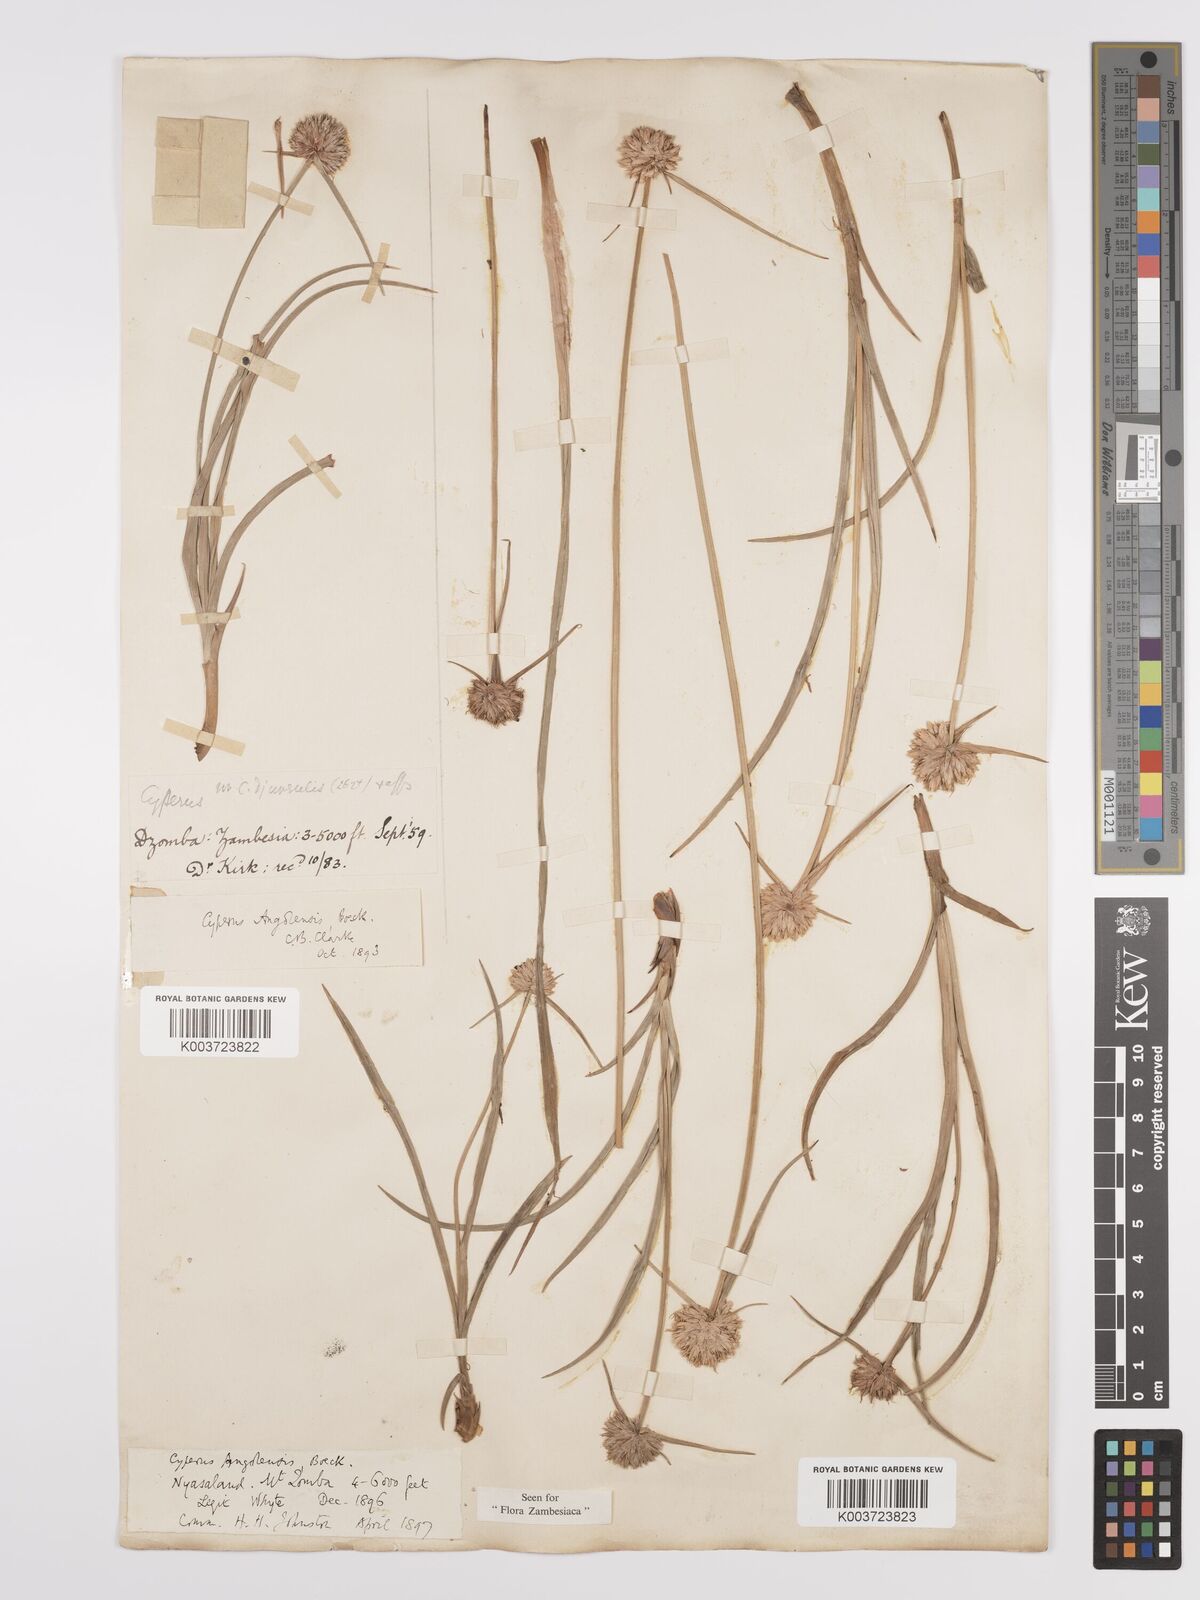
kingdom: Plantae
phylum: Tracheophyta
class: Liliopsida
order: Poales
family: Cyperaceae
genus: Cyperus
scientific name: Cyperus angolensis
